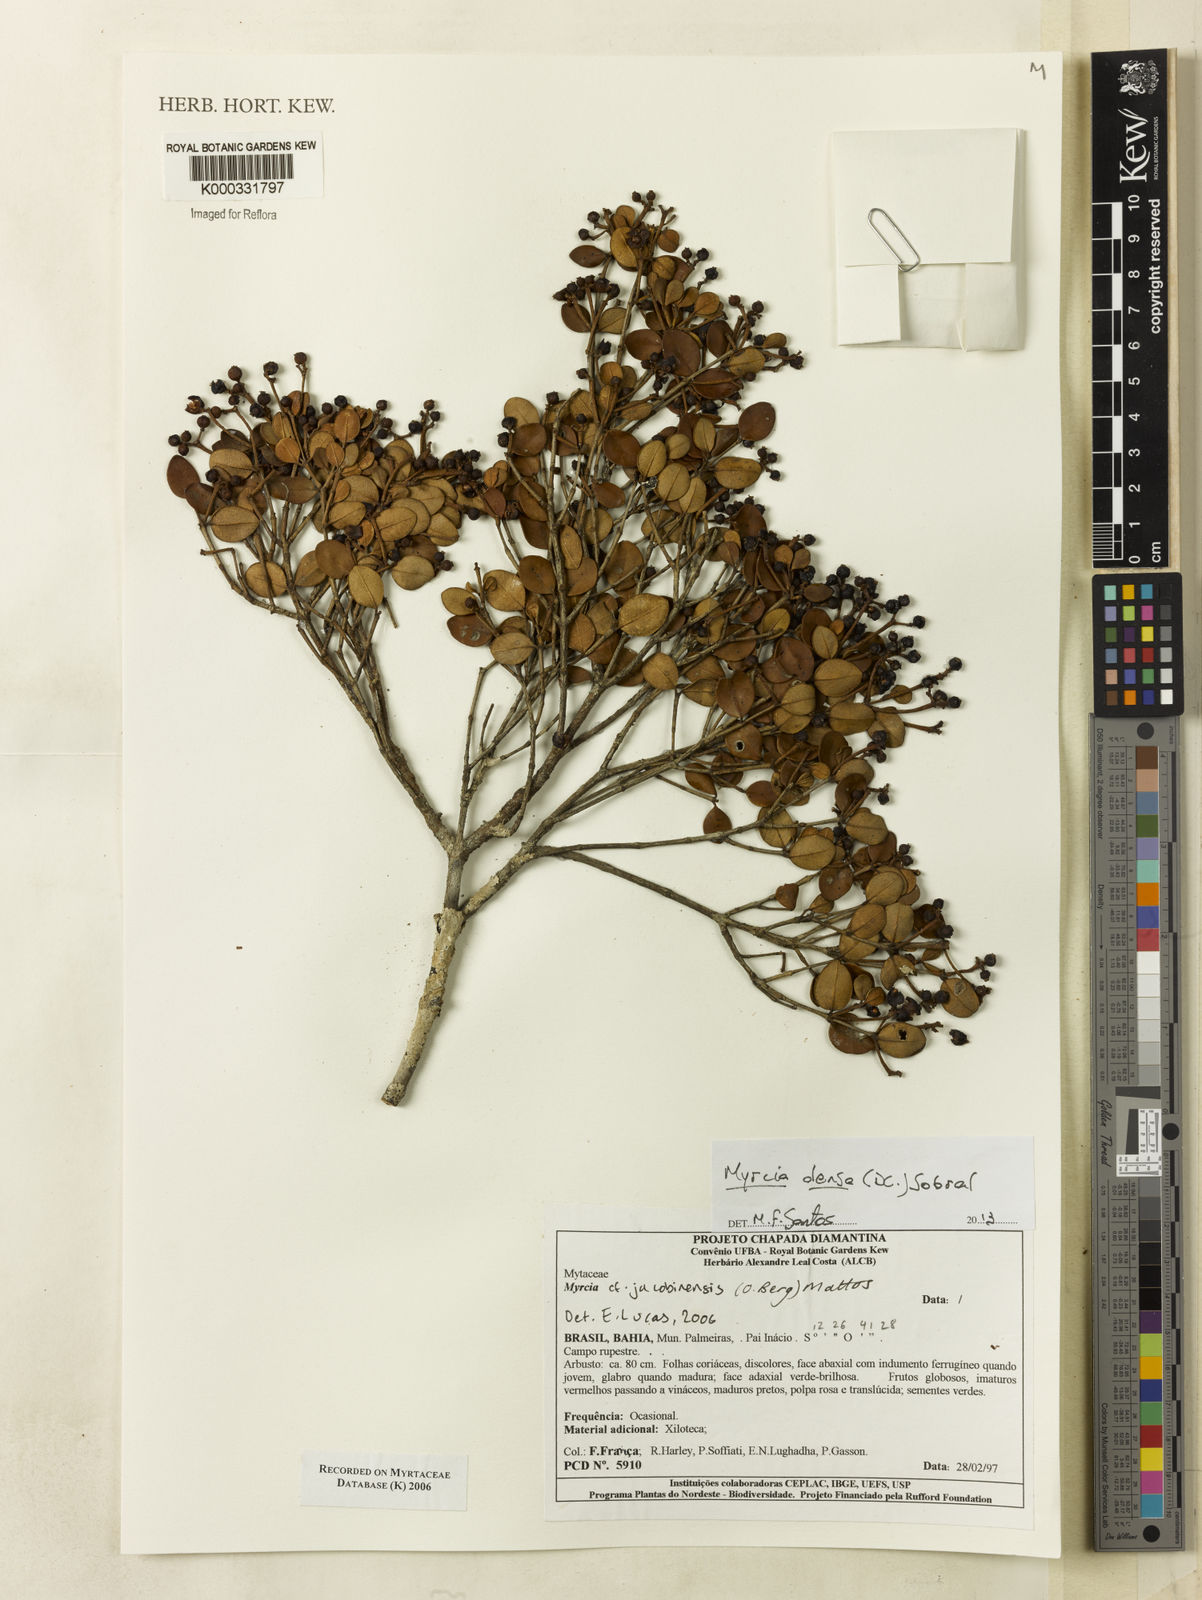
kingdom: Plantae
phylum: Tracheophyta
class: Magnoliopsida
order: Myrtales
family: Myrtaceae
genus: Myrcia
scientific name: Myrcia jacobinensis
